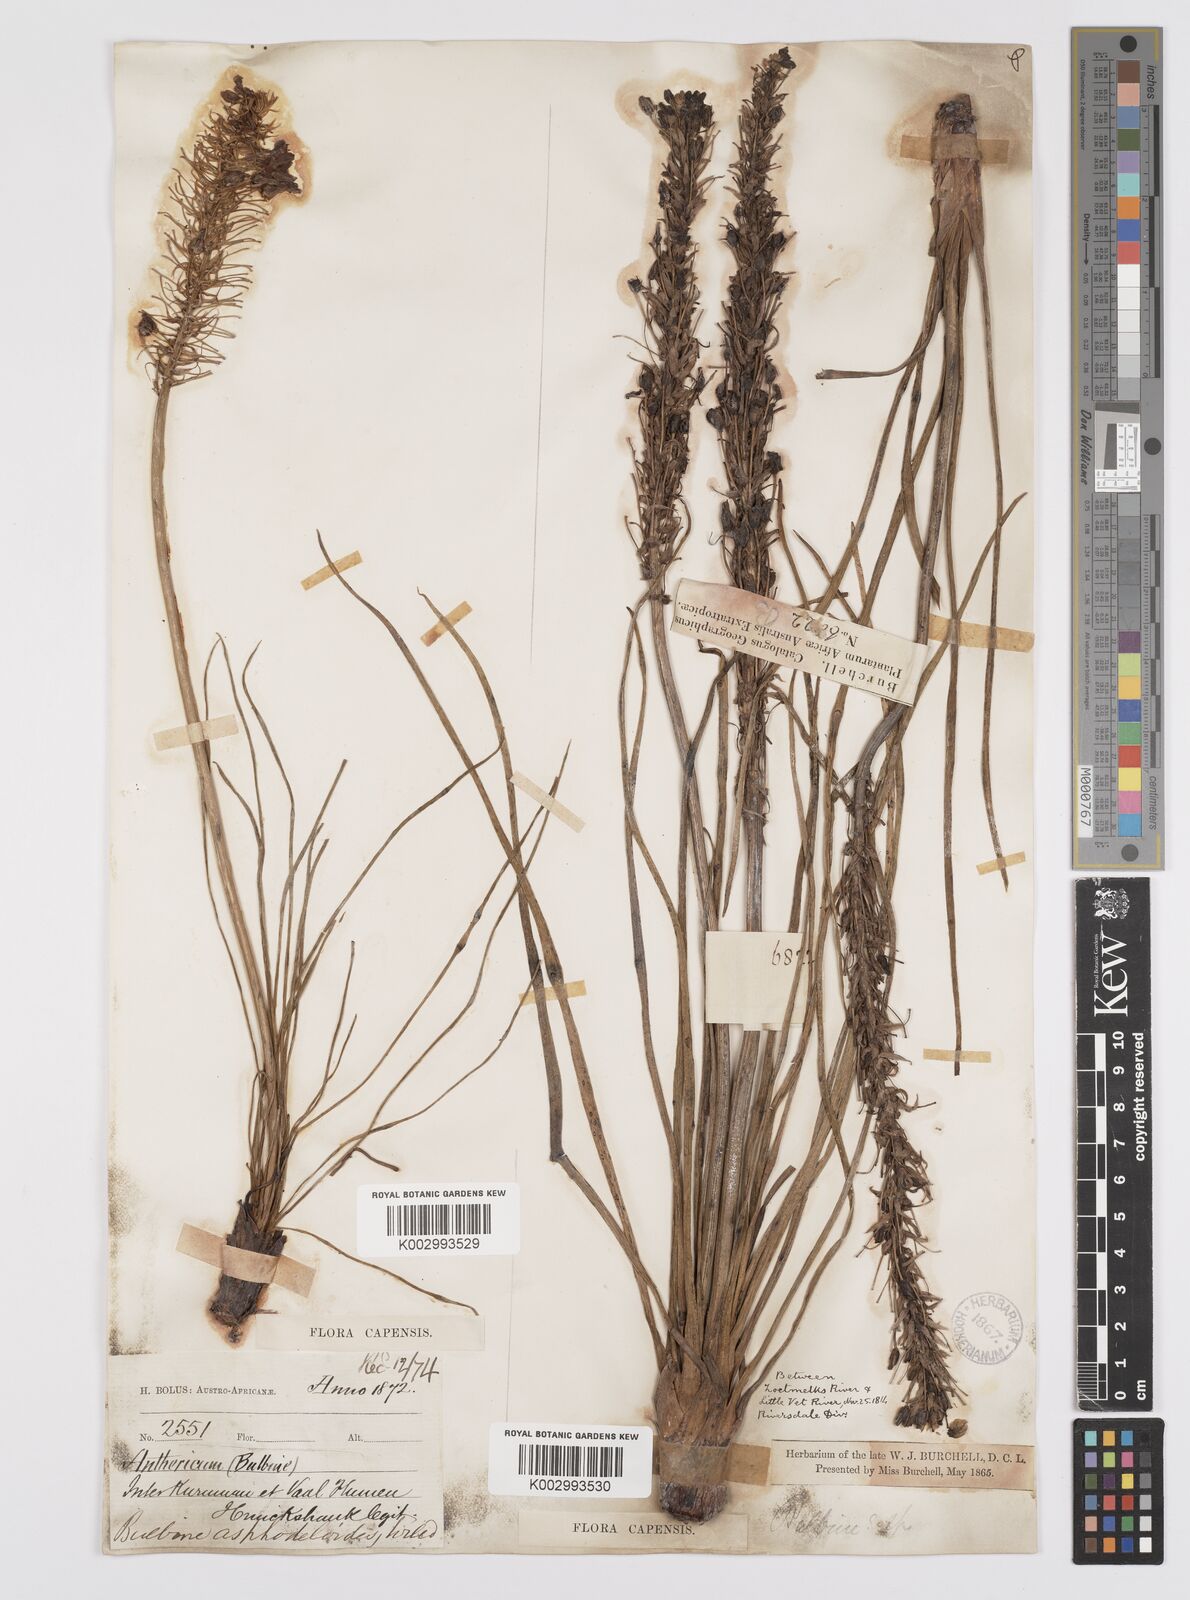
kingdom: Plantae
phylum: Tracheophyta
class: Liliopsida
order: Asparagales
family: Asphodelaceae
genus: Bulbine
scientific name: Bulbine asphodeloides
